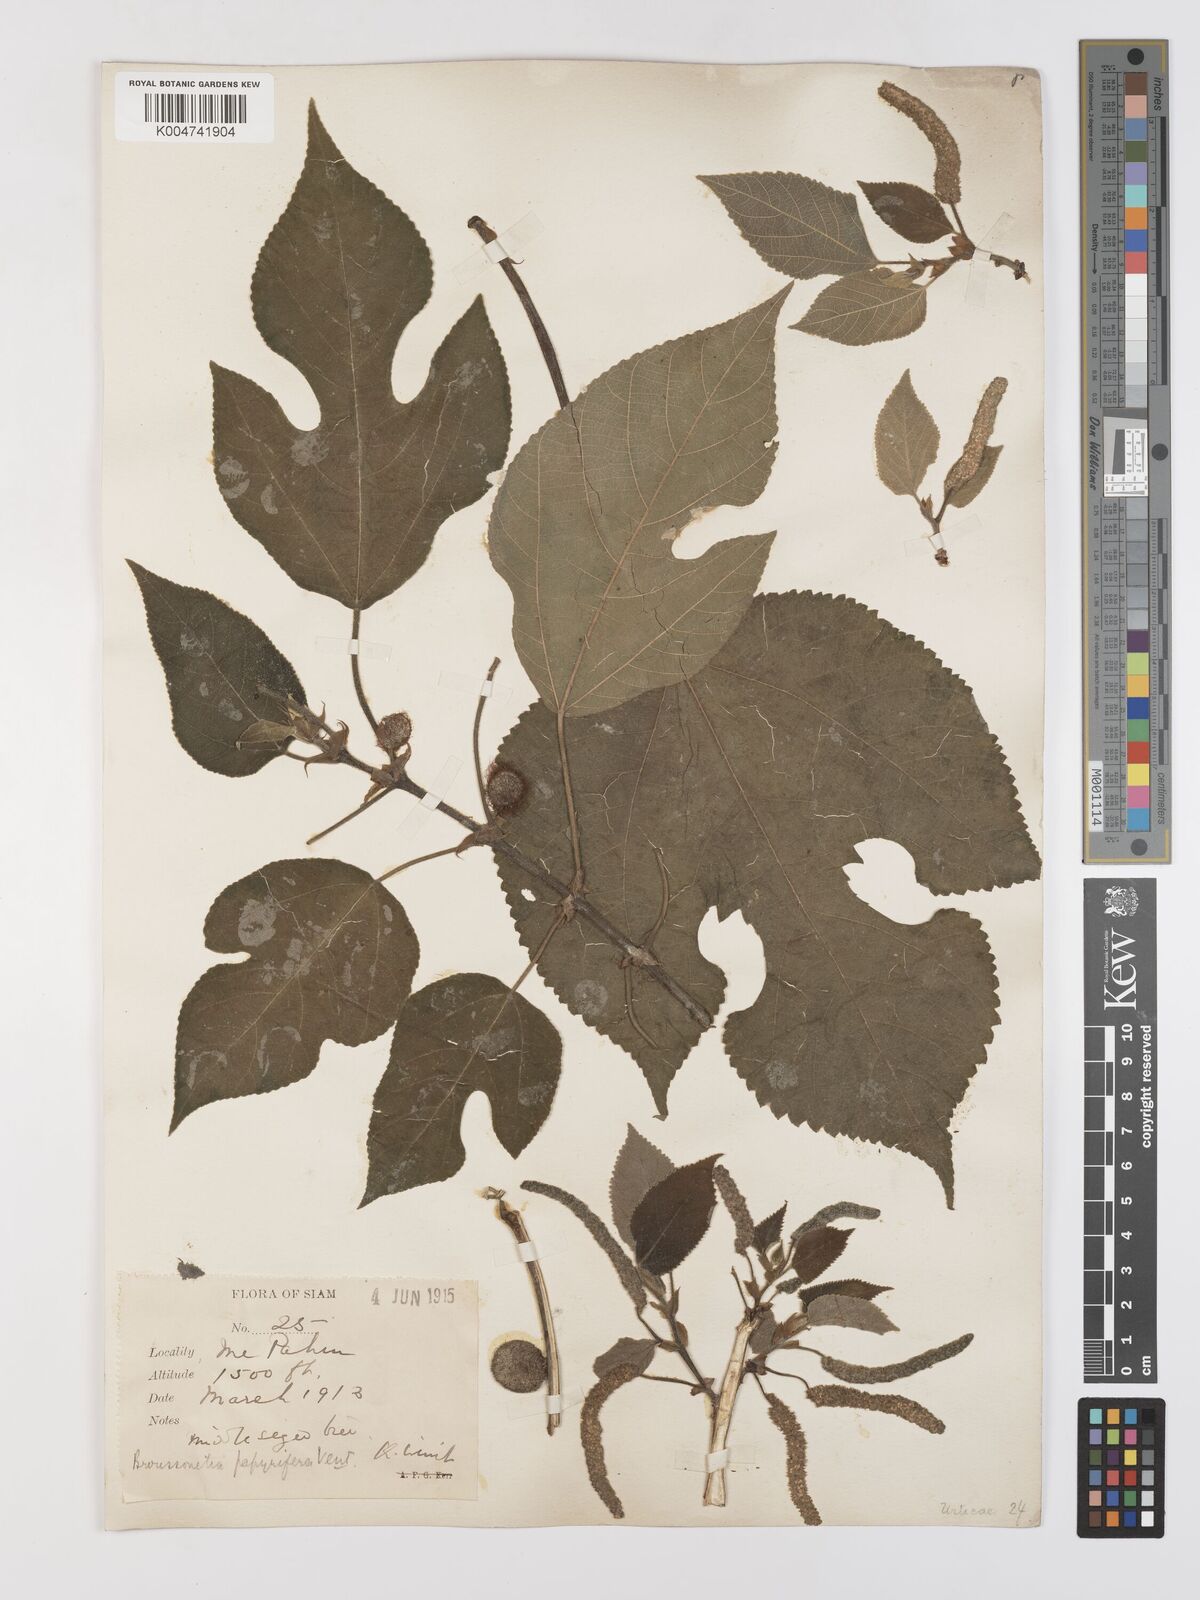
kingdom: Plantae
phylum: Tracheophyta
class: Magnoliopsida
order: Rosales
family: Moraceae
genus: Broussonetia
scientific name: Broussonetia papyrifera
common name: Paper mulberry
